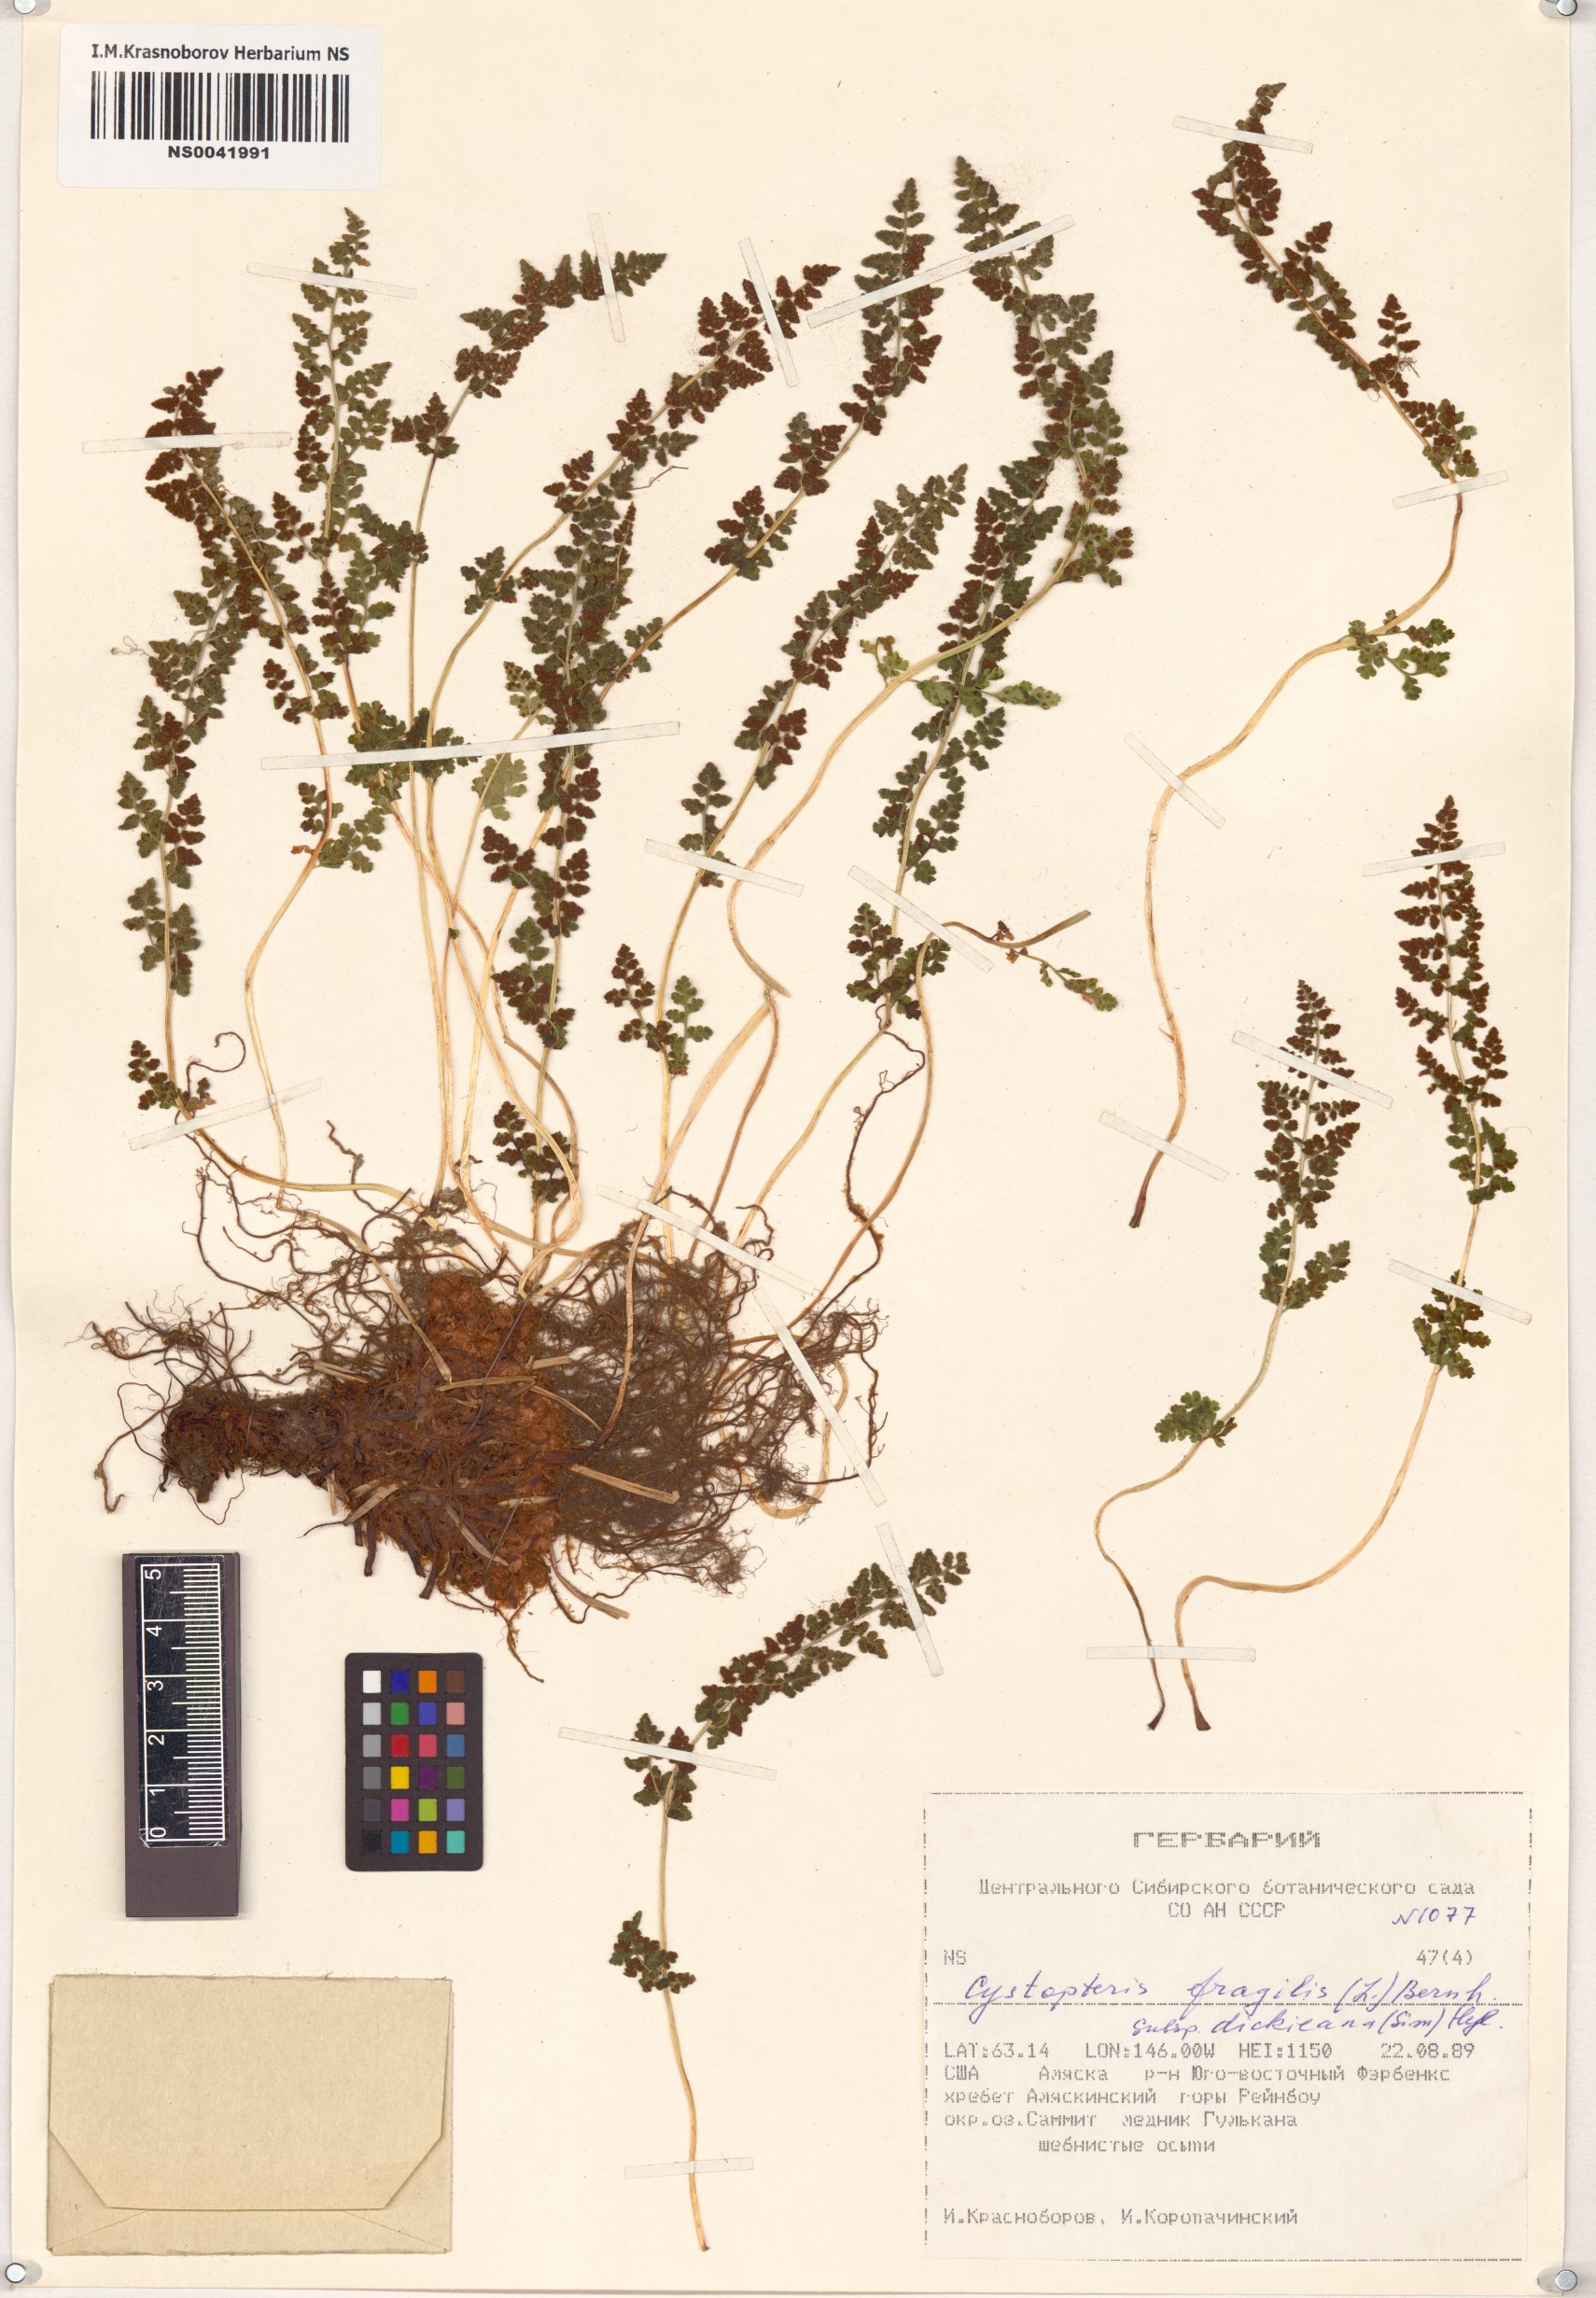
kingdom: Plantae
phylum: Tracheophyta
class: Polypodiopsida
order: Polypodiales
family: Cystopteridaceae
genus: Cystopteris
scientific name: Cystopteris dickieana
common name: Dickie's bladder-fern
